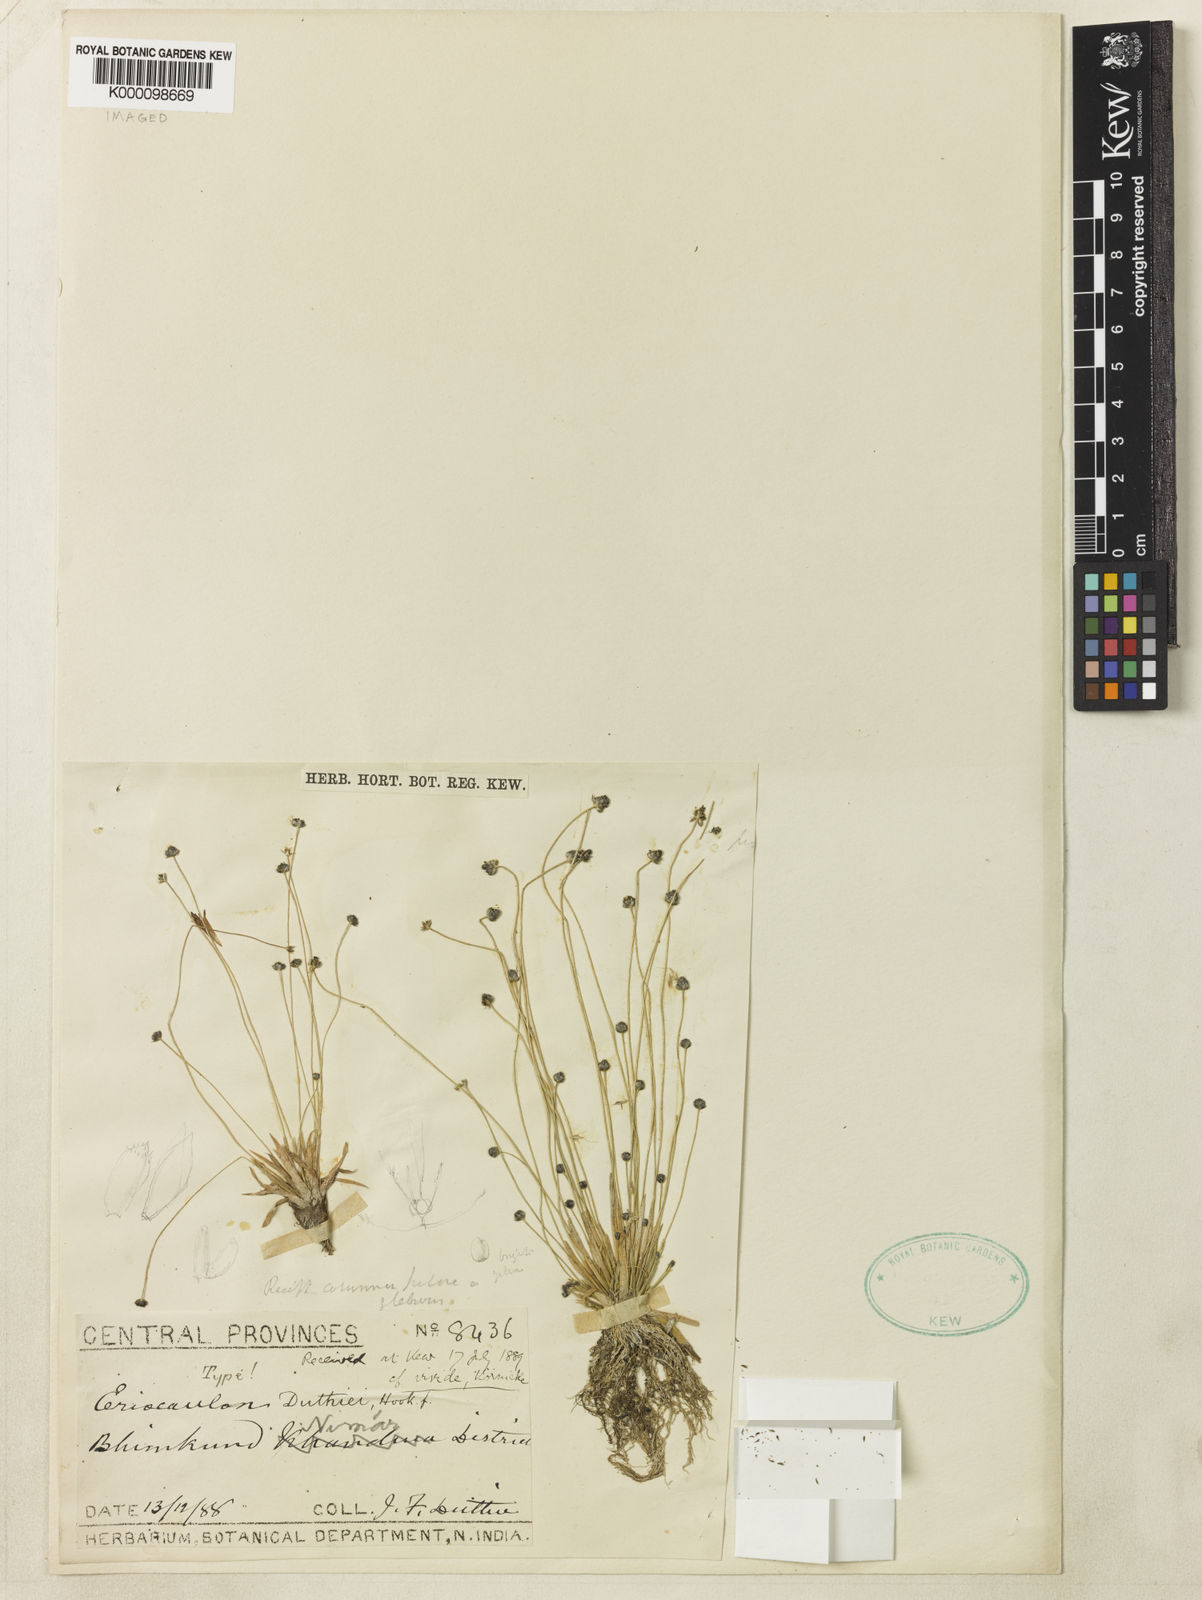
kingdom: Plantae
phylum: Tracheophyta
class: Liliopsida
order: Poales
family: Eriocaulaceae
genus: Eriocaulon
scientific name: Eriocaulon duthiei
